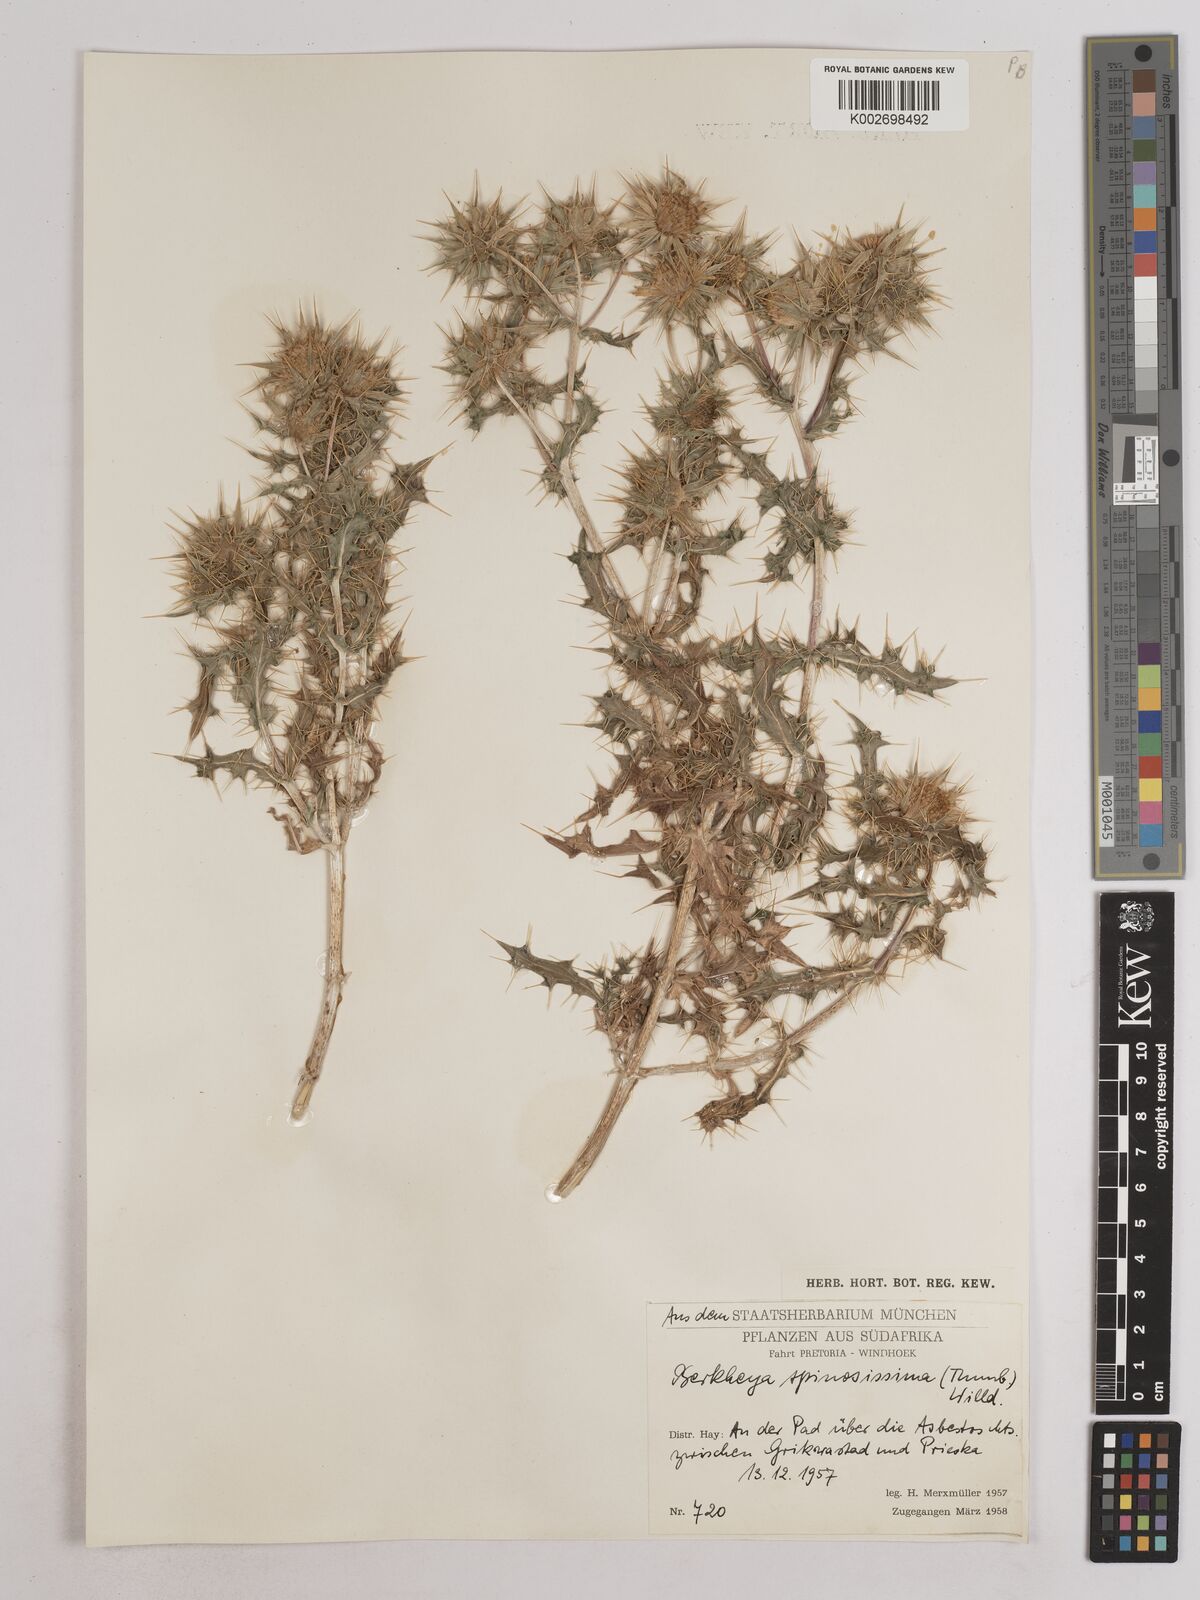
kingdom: Plantae
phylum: Tracheophyta
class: Magnoliopsida
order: Asterales
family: Asteraceae
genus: Berkheya
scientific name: Berkheya spinosissima
